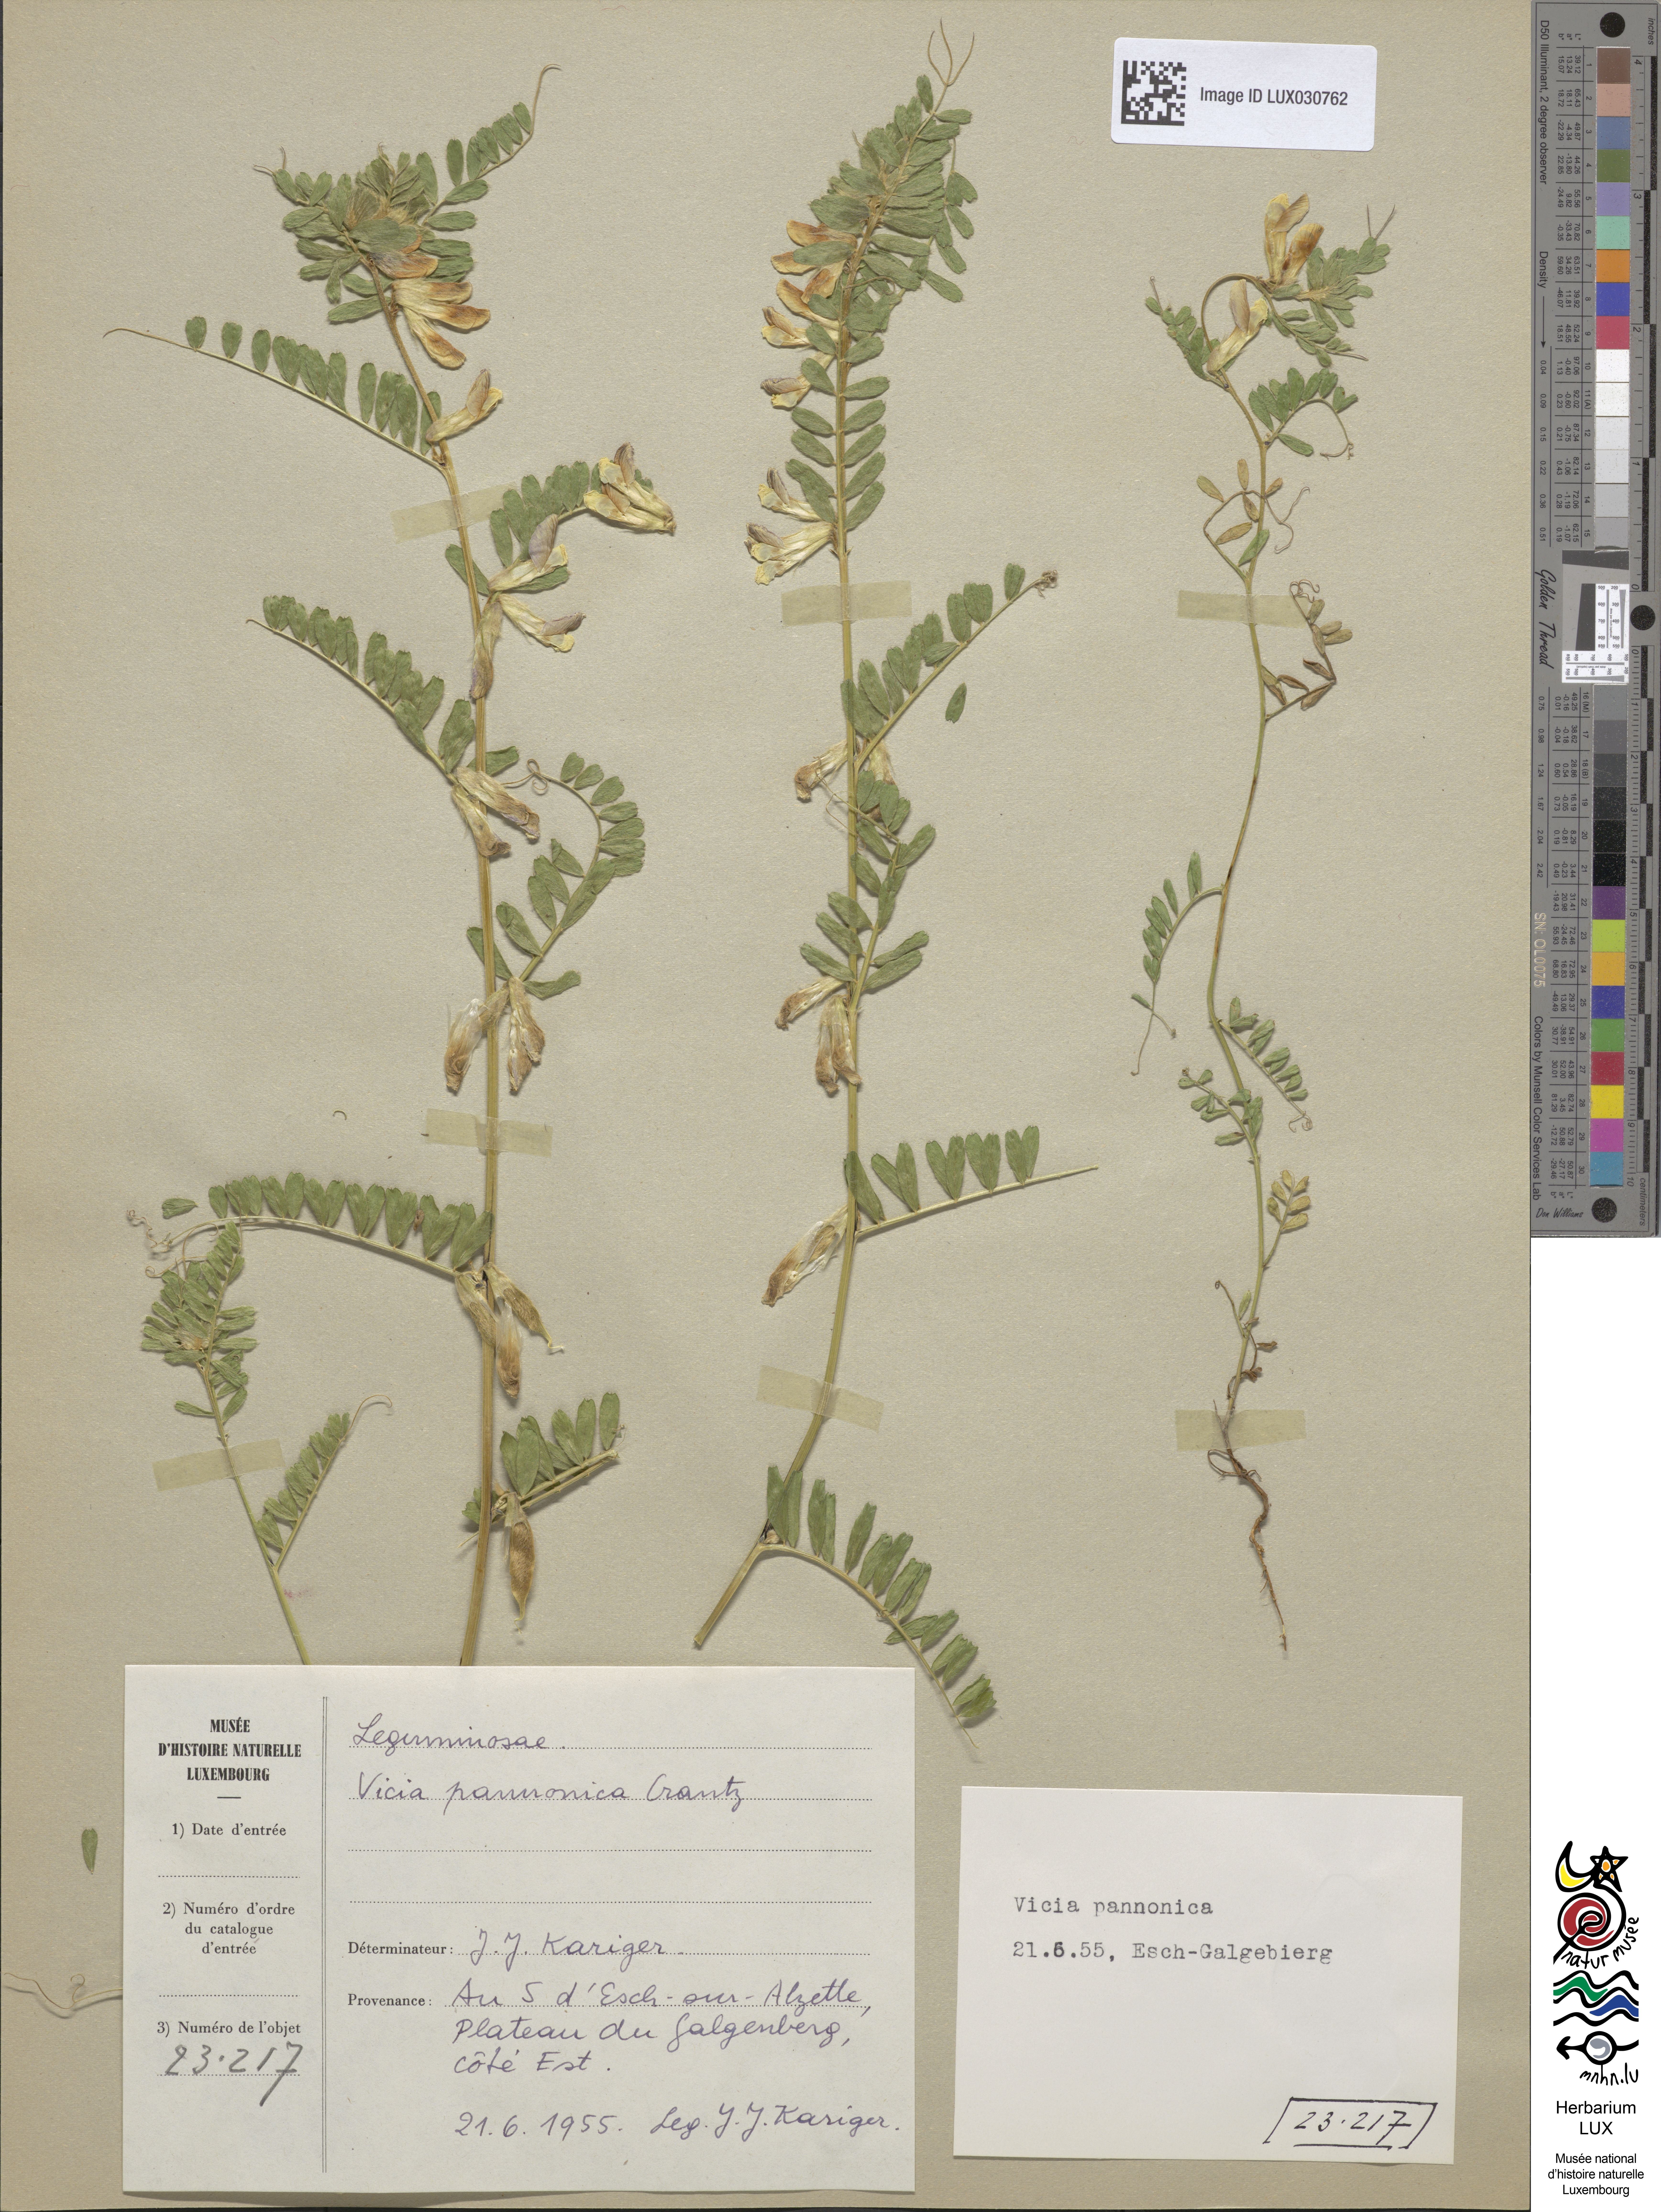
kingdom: Plantae
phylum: Tracheophyta
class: Magnoliopsida
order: Fabales
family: Fabaceae
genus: Vicia
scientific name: Vicia pannonica
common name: Hungarian vetch
